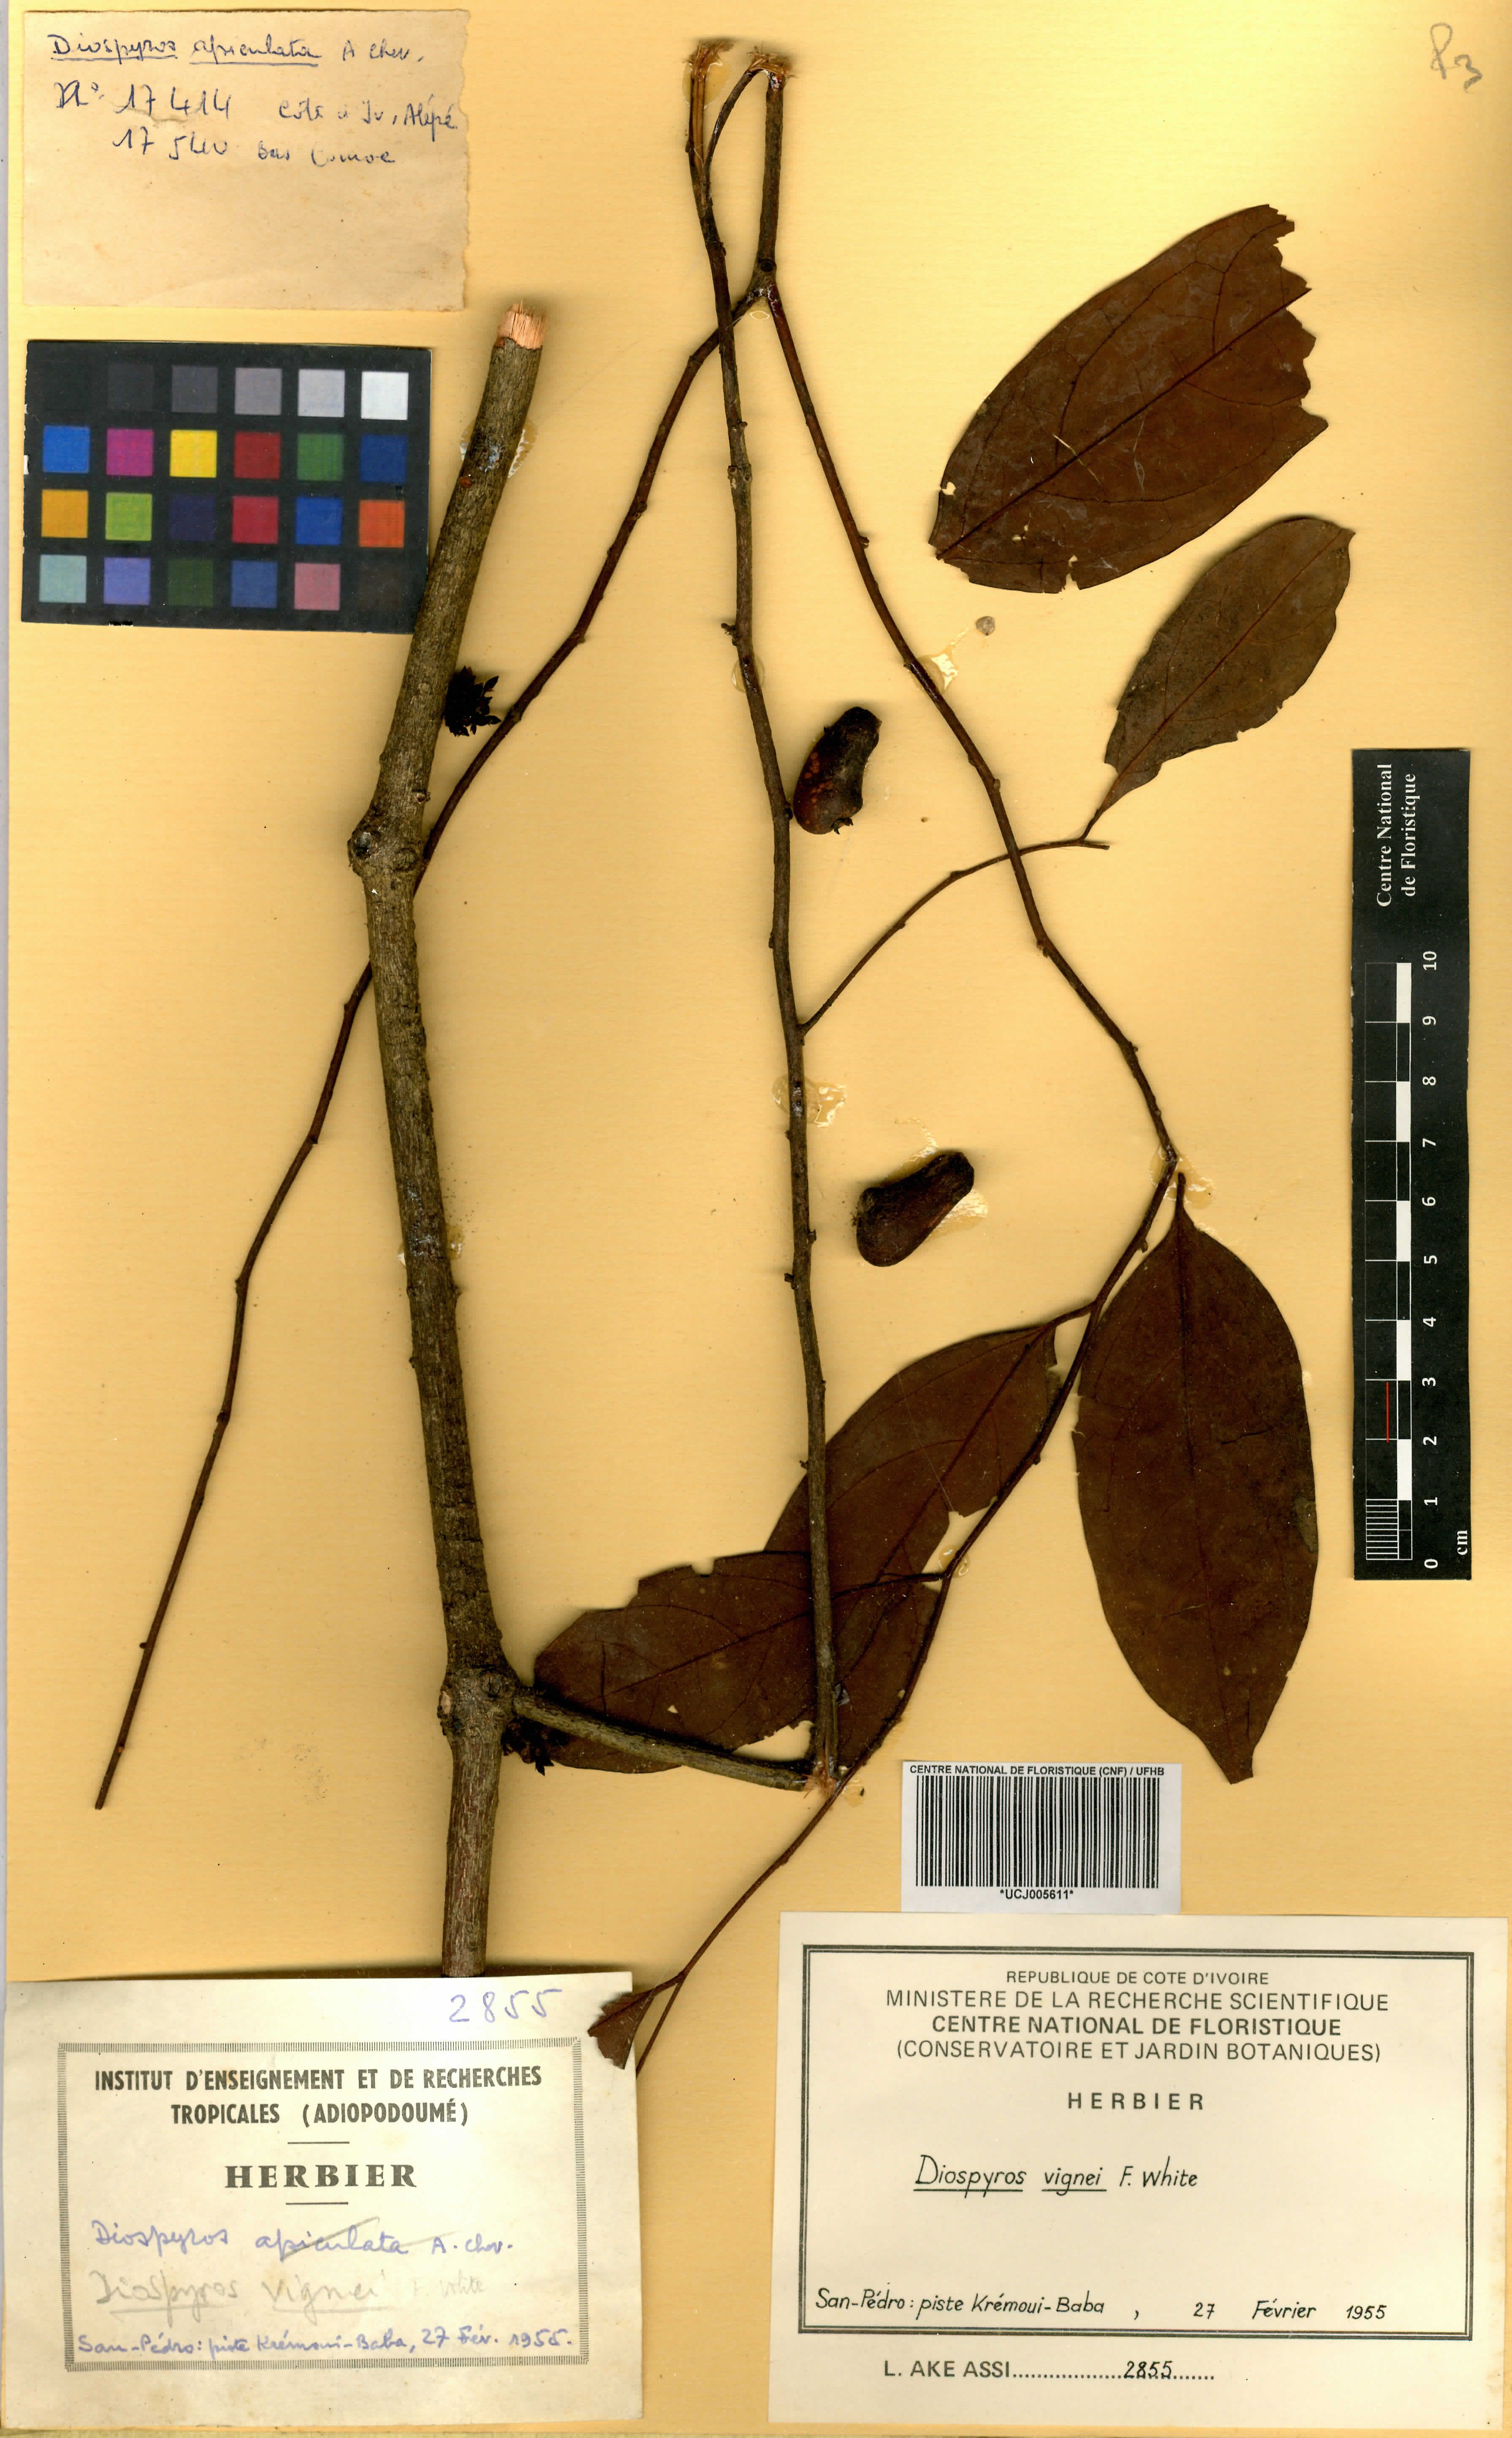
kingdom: Plantae
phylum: Tracheophyta
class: Magnoliopsida
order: Ericales
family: Ebenaceae
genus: Diospyros
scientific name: Diospyros vignei
